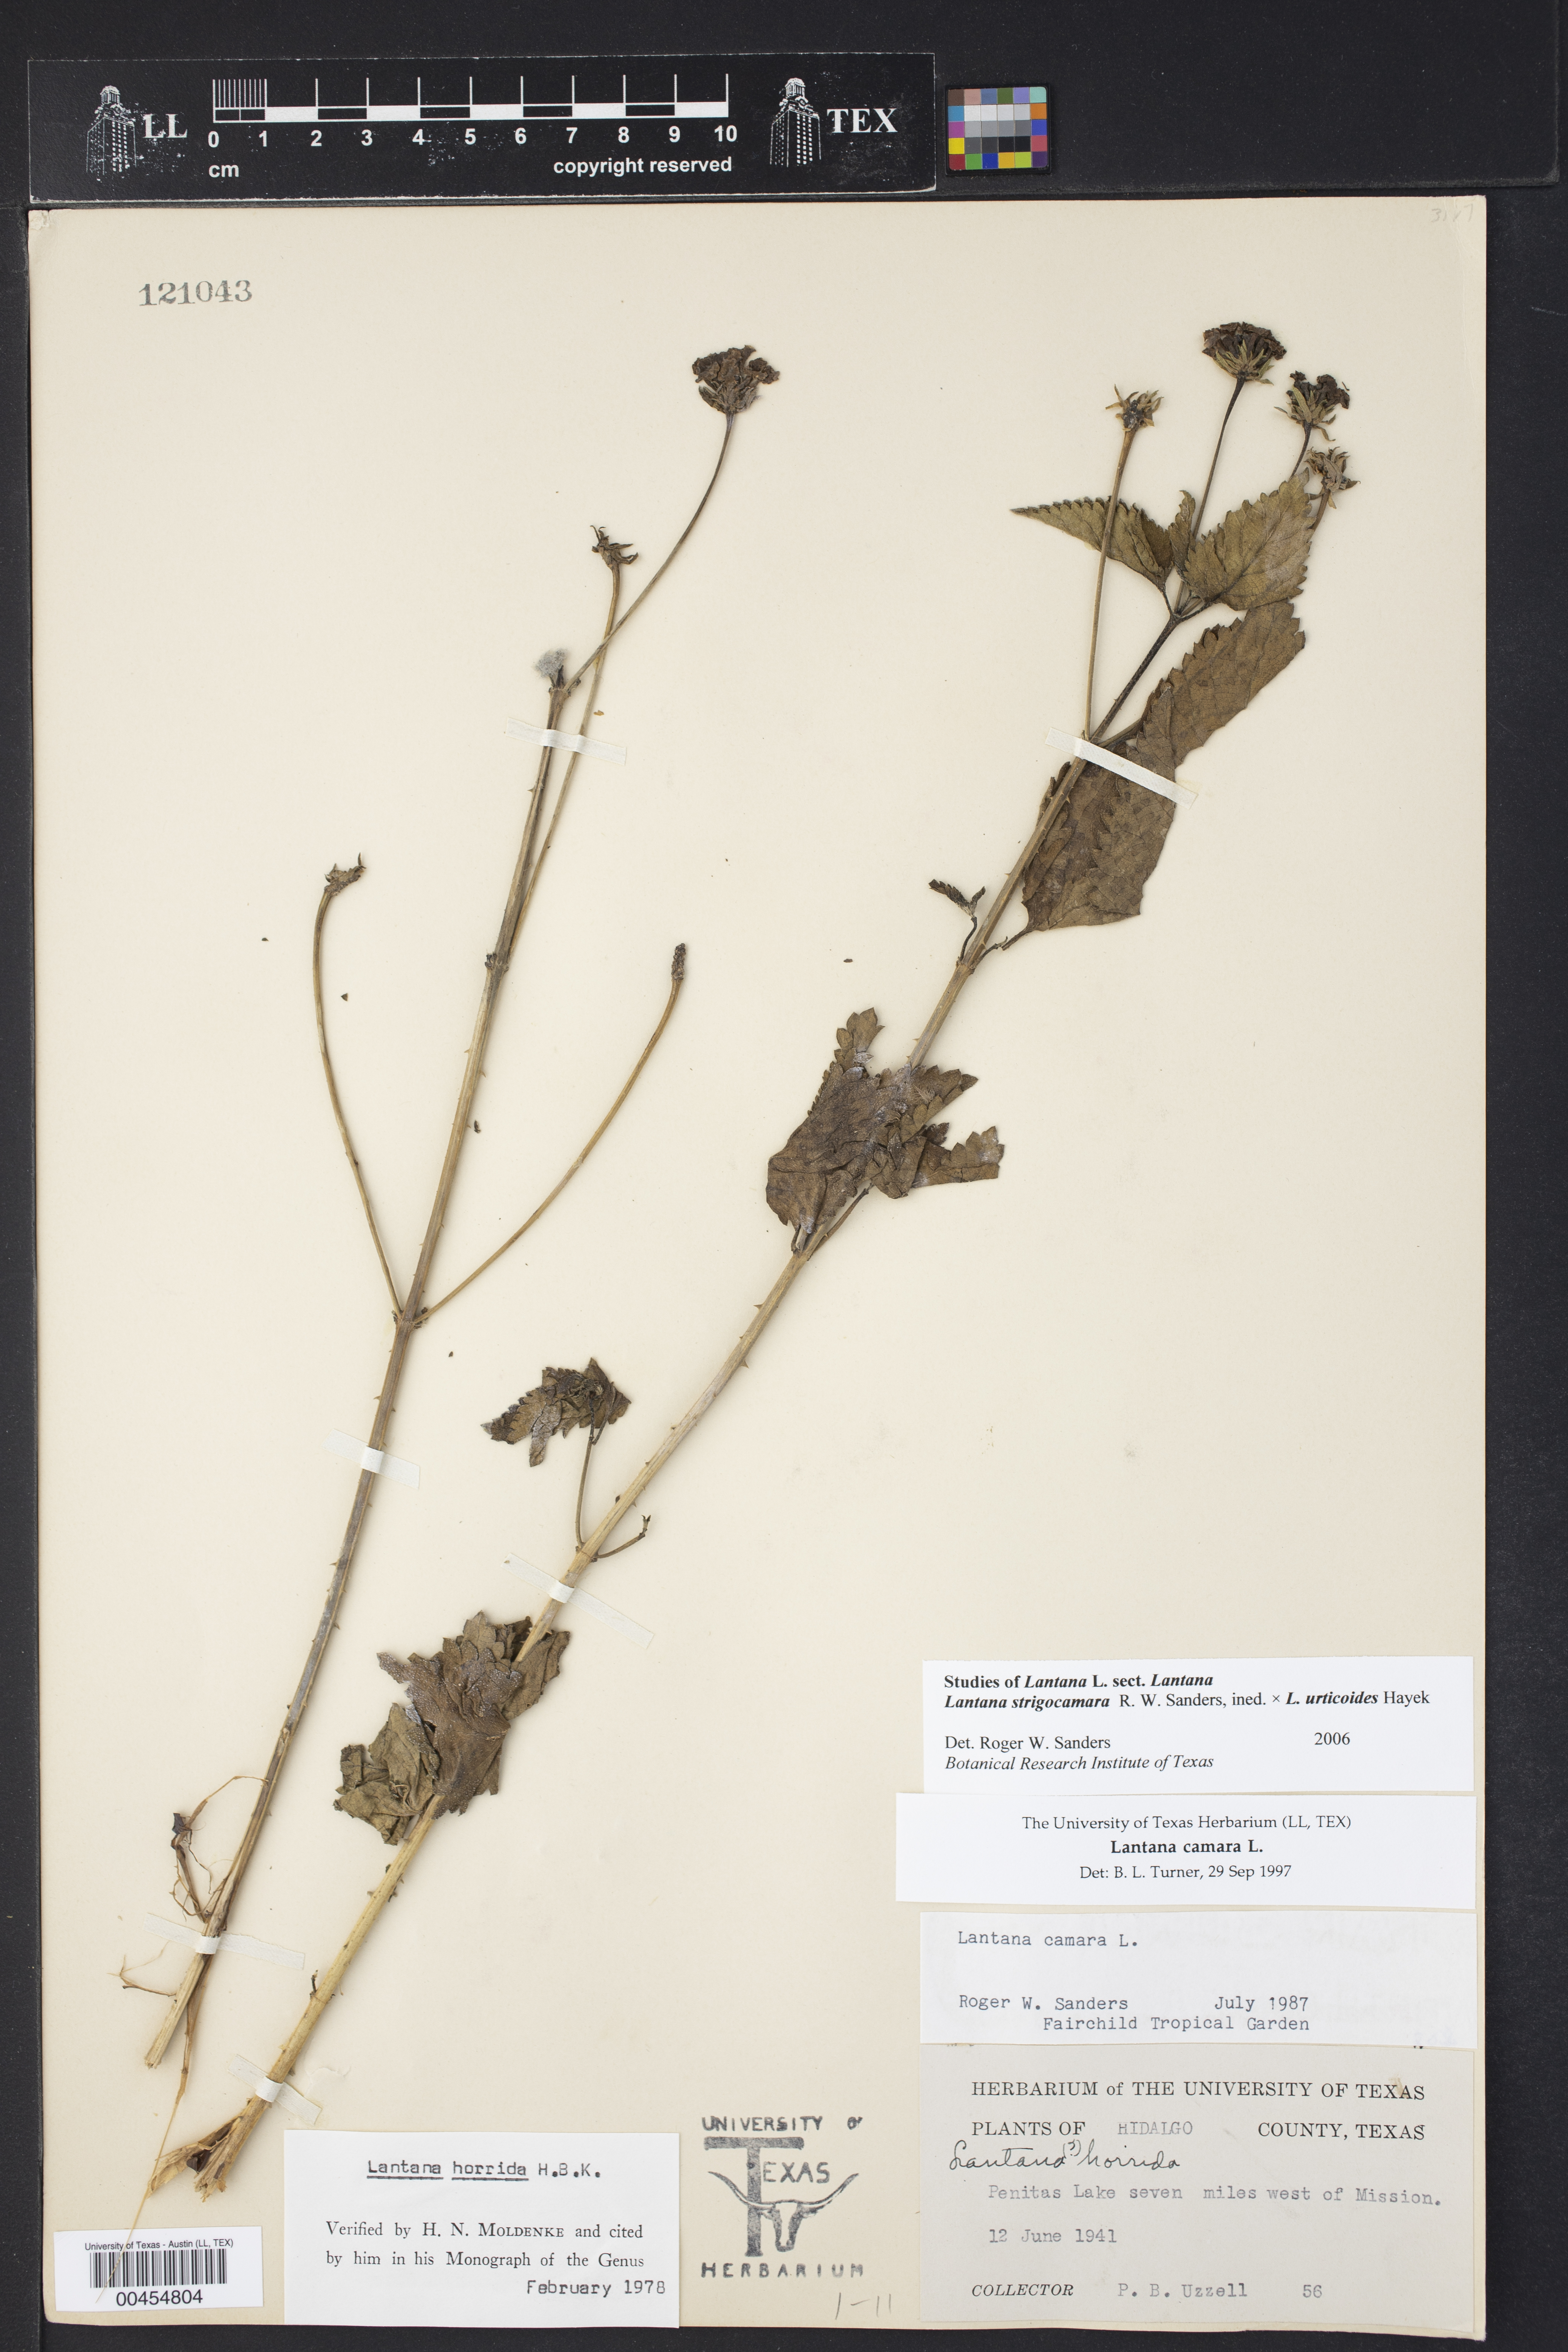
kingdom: Plantae
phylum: Tracheophyta
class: Magnoliopsida
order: Lamiales
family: Verbenaceae
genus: Lantana
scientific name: Lantana strigocamara
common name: Lantana
